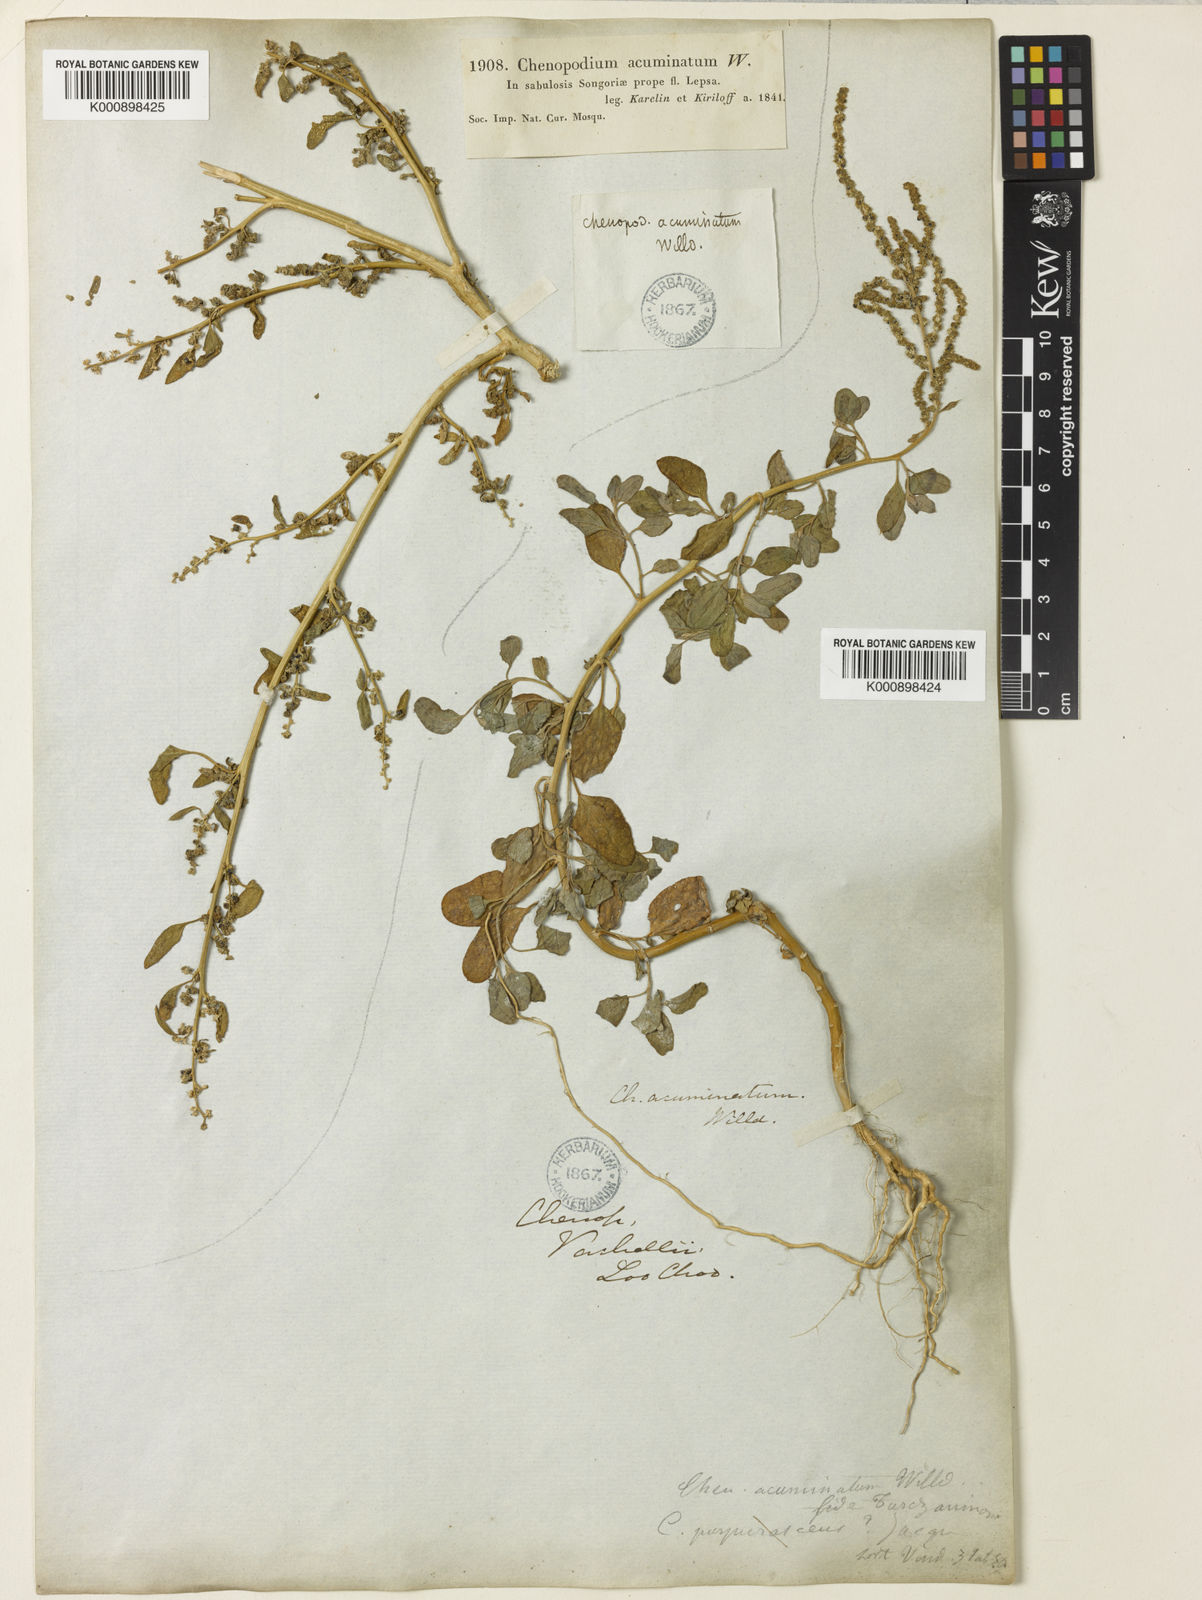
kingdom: Plantae
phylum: Tracheophyta
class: Magnoliopsida
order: Caryophyllales
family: Amaranthaceae
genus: Chenopodium
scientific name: Chenopodium acuminatum
